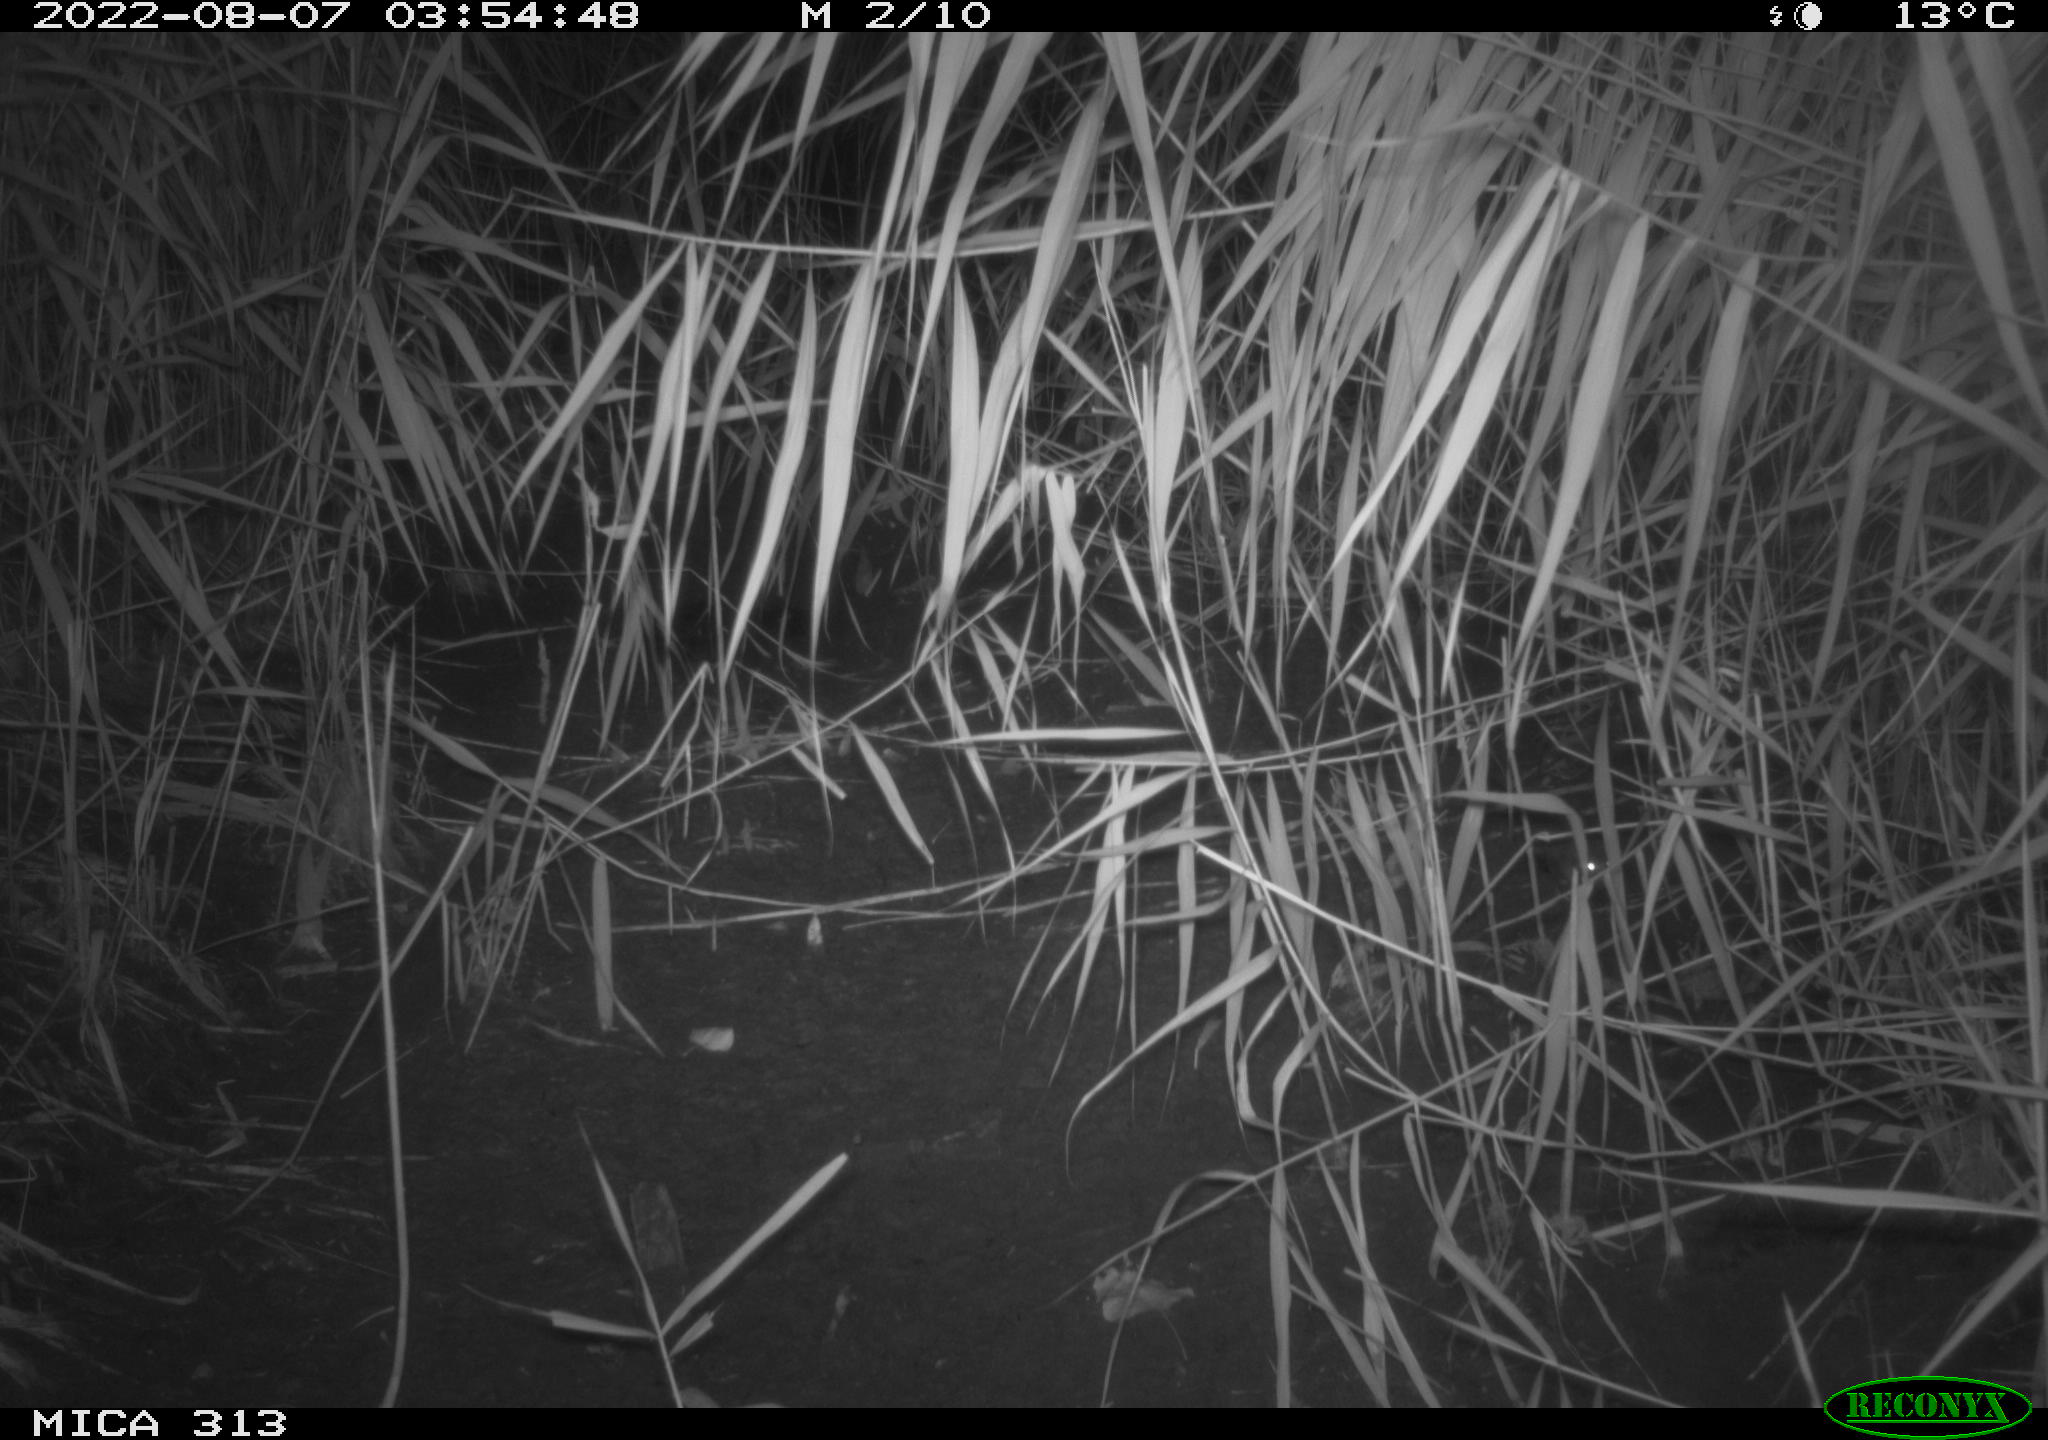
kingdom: Animalia
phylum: Chordata
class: Mammalia
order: Rodentia
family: Muridae
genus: Rattus
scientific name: Rattus norvegicus
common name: Brown rat
